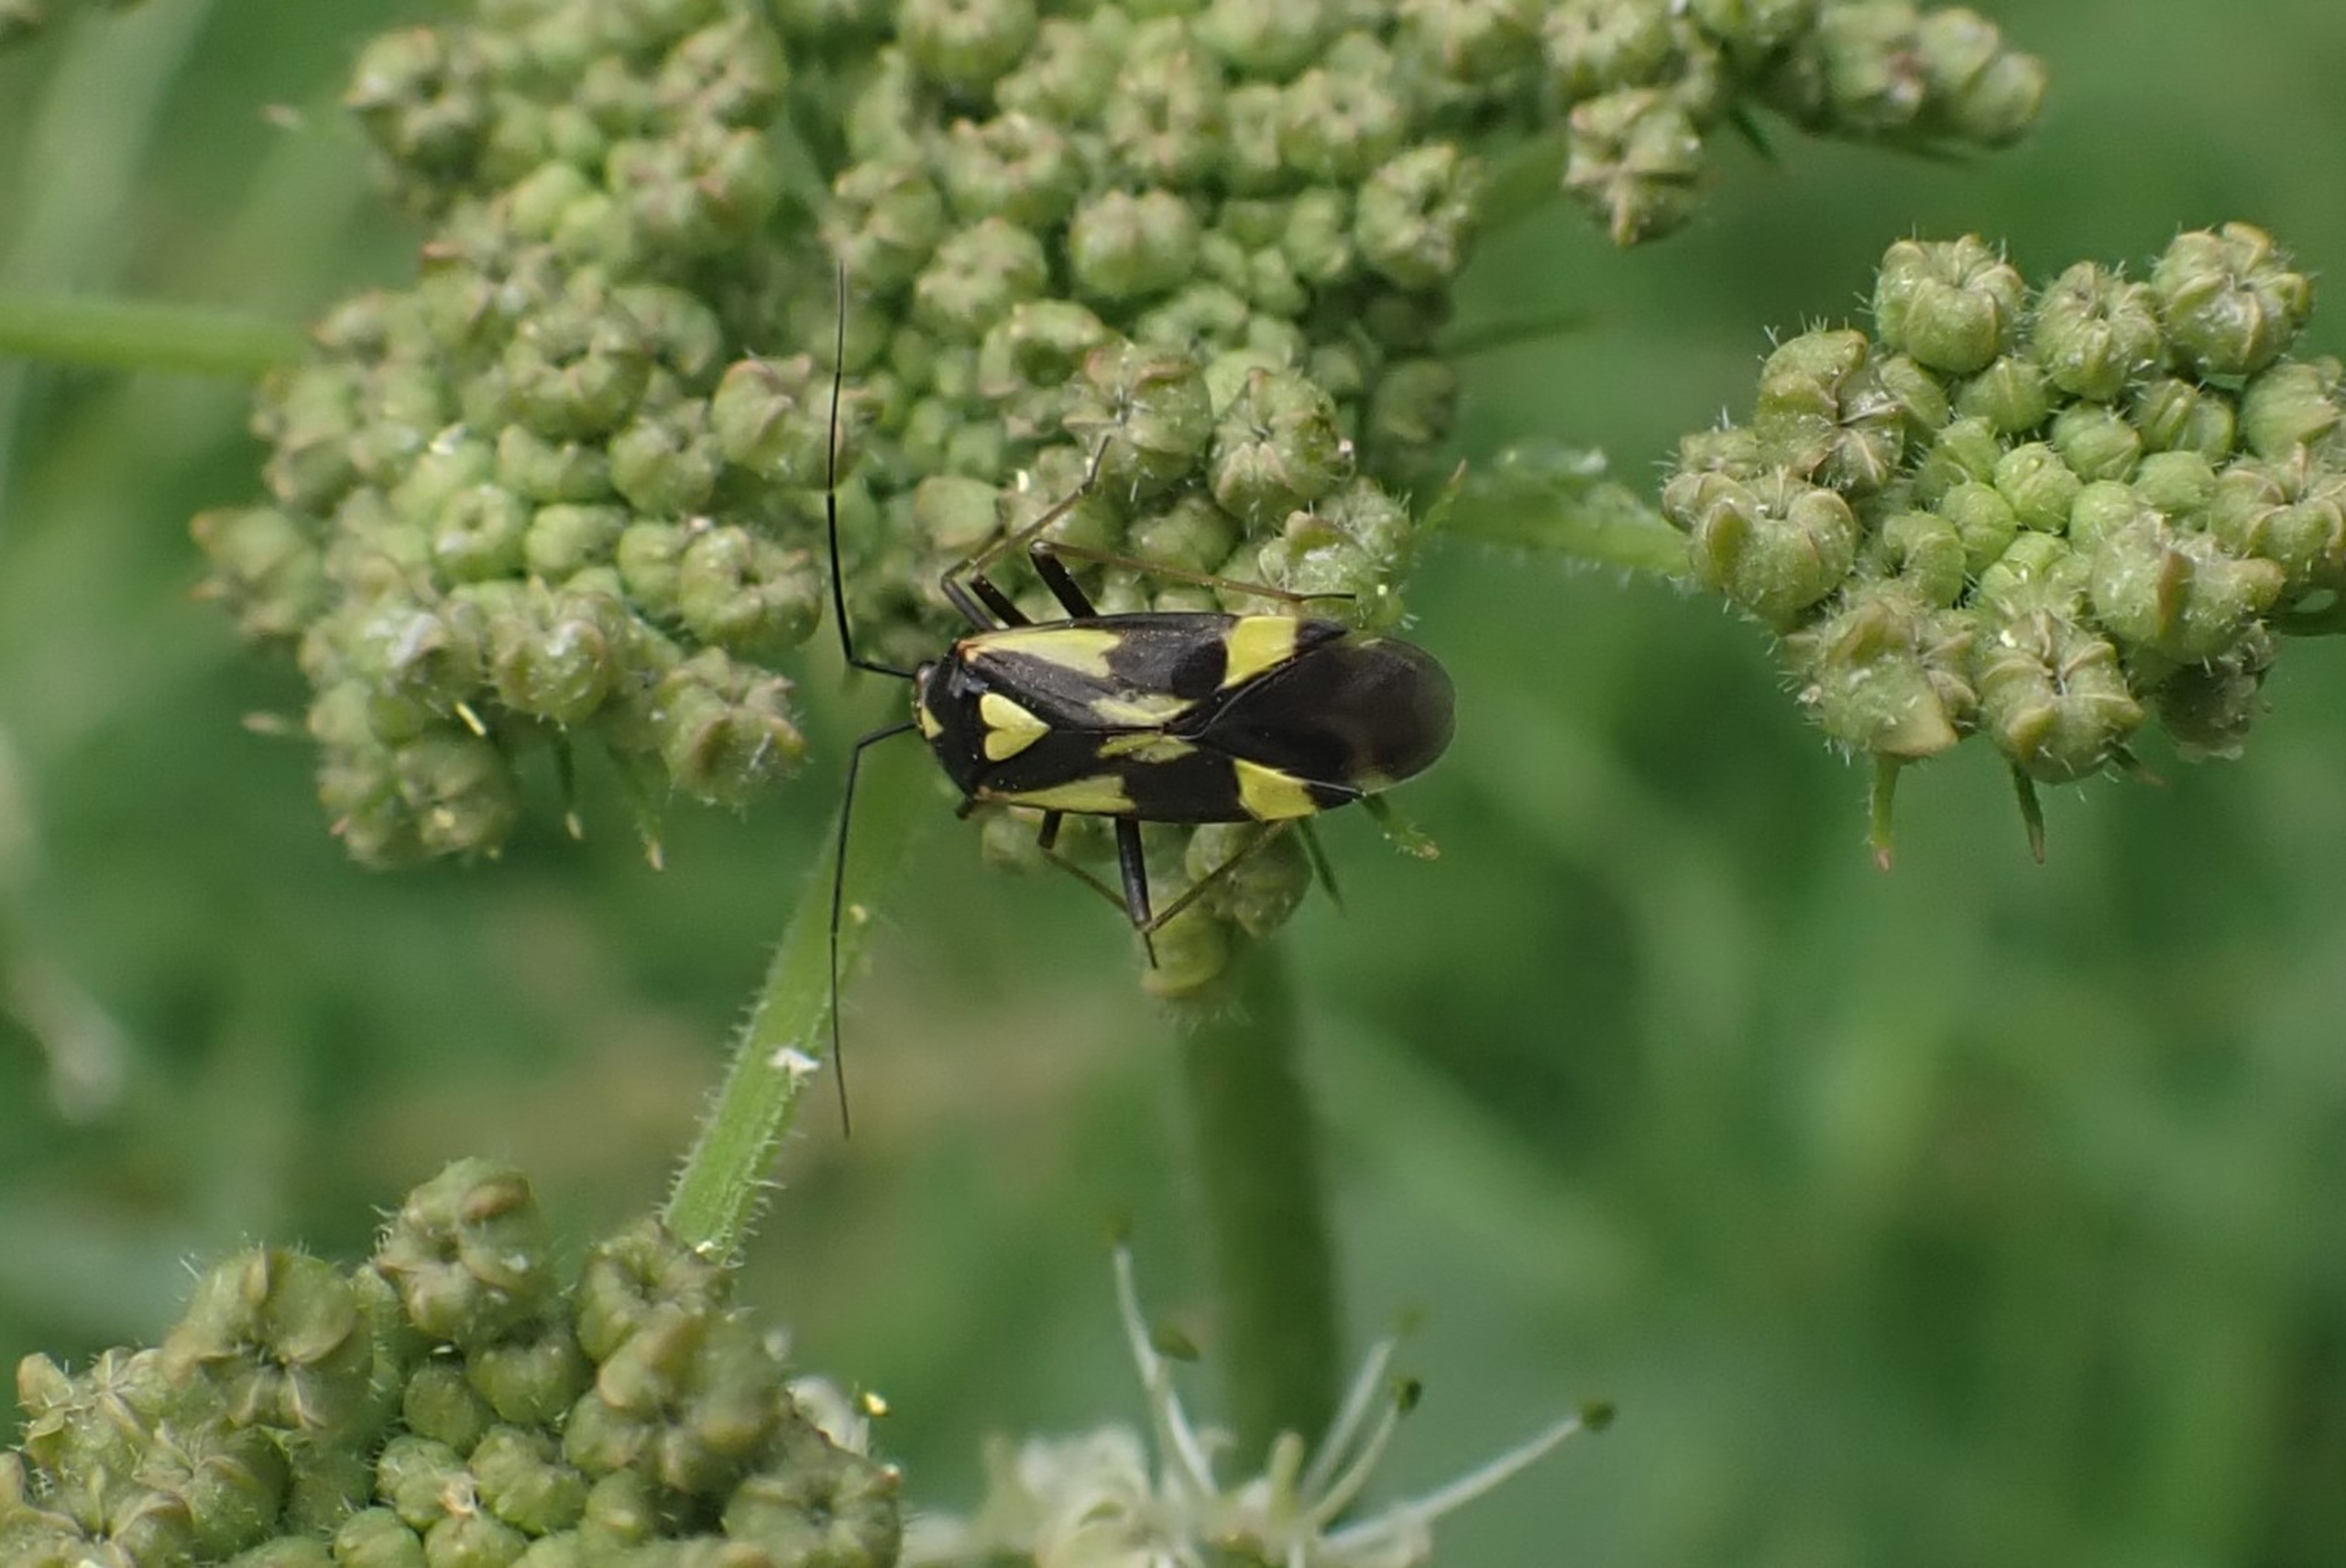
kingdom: Animalia
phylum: Arthropoda
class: Insecta
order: Hemiptera
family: Miridae
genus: Grypocoris
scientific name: Grypocoris sexguttatus
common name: Seksplettet blomstertæge
